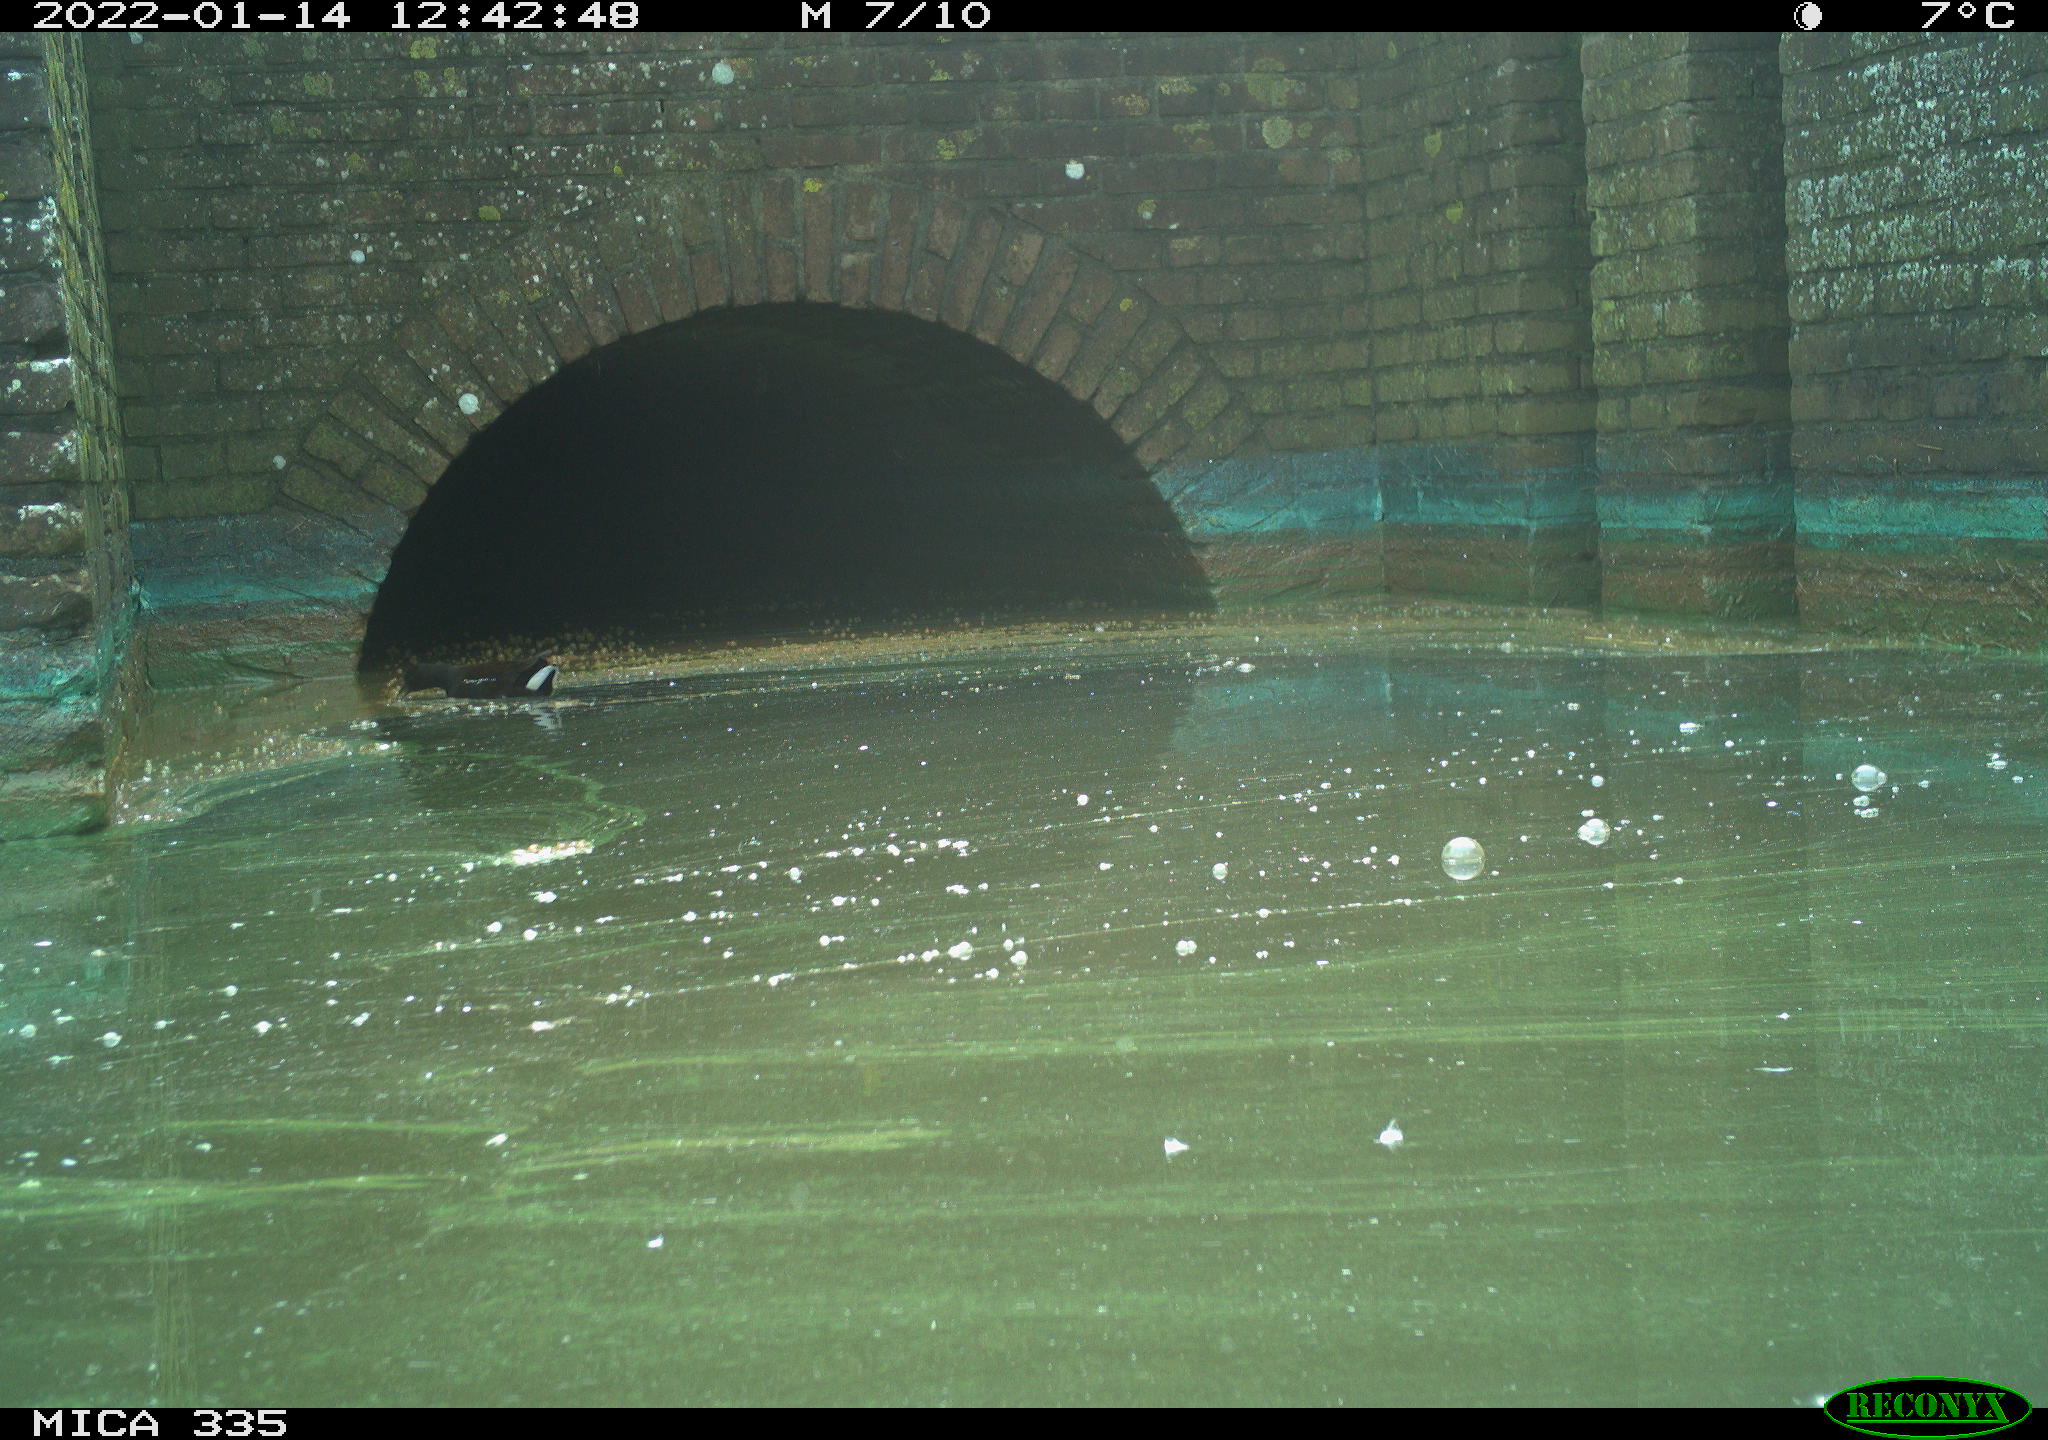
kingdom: Animalia
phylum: Chordata
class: Aves
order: Gruiformes
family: Rallidae
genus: Gallinula
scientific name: Gallinula chloropus
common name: Common moorhen
